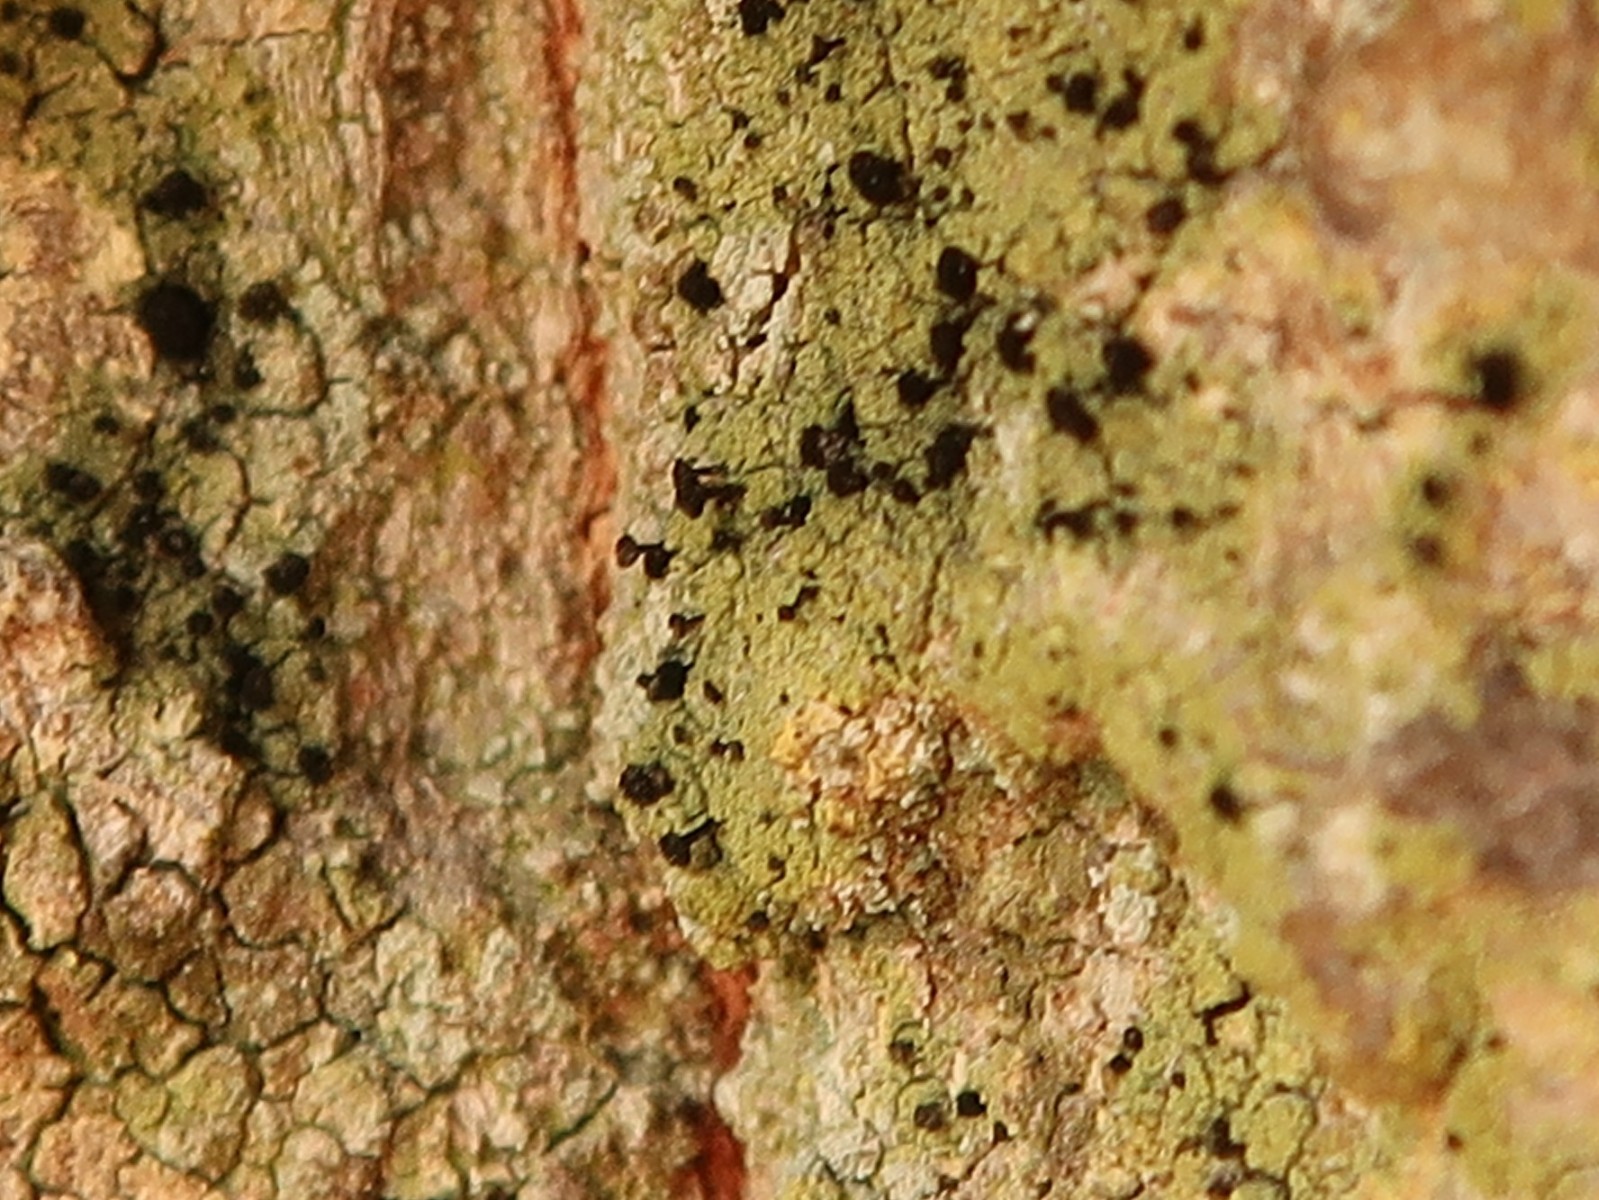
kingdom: Fungi
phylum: Ascomycota
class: Lecanoromycetes
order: Caliciales
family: Caliciaceae
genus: Calicium
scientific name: Calicium viride
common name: gulgrøn nålelav
